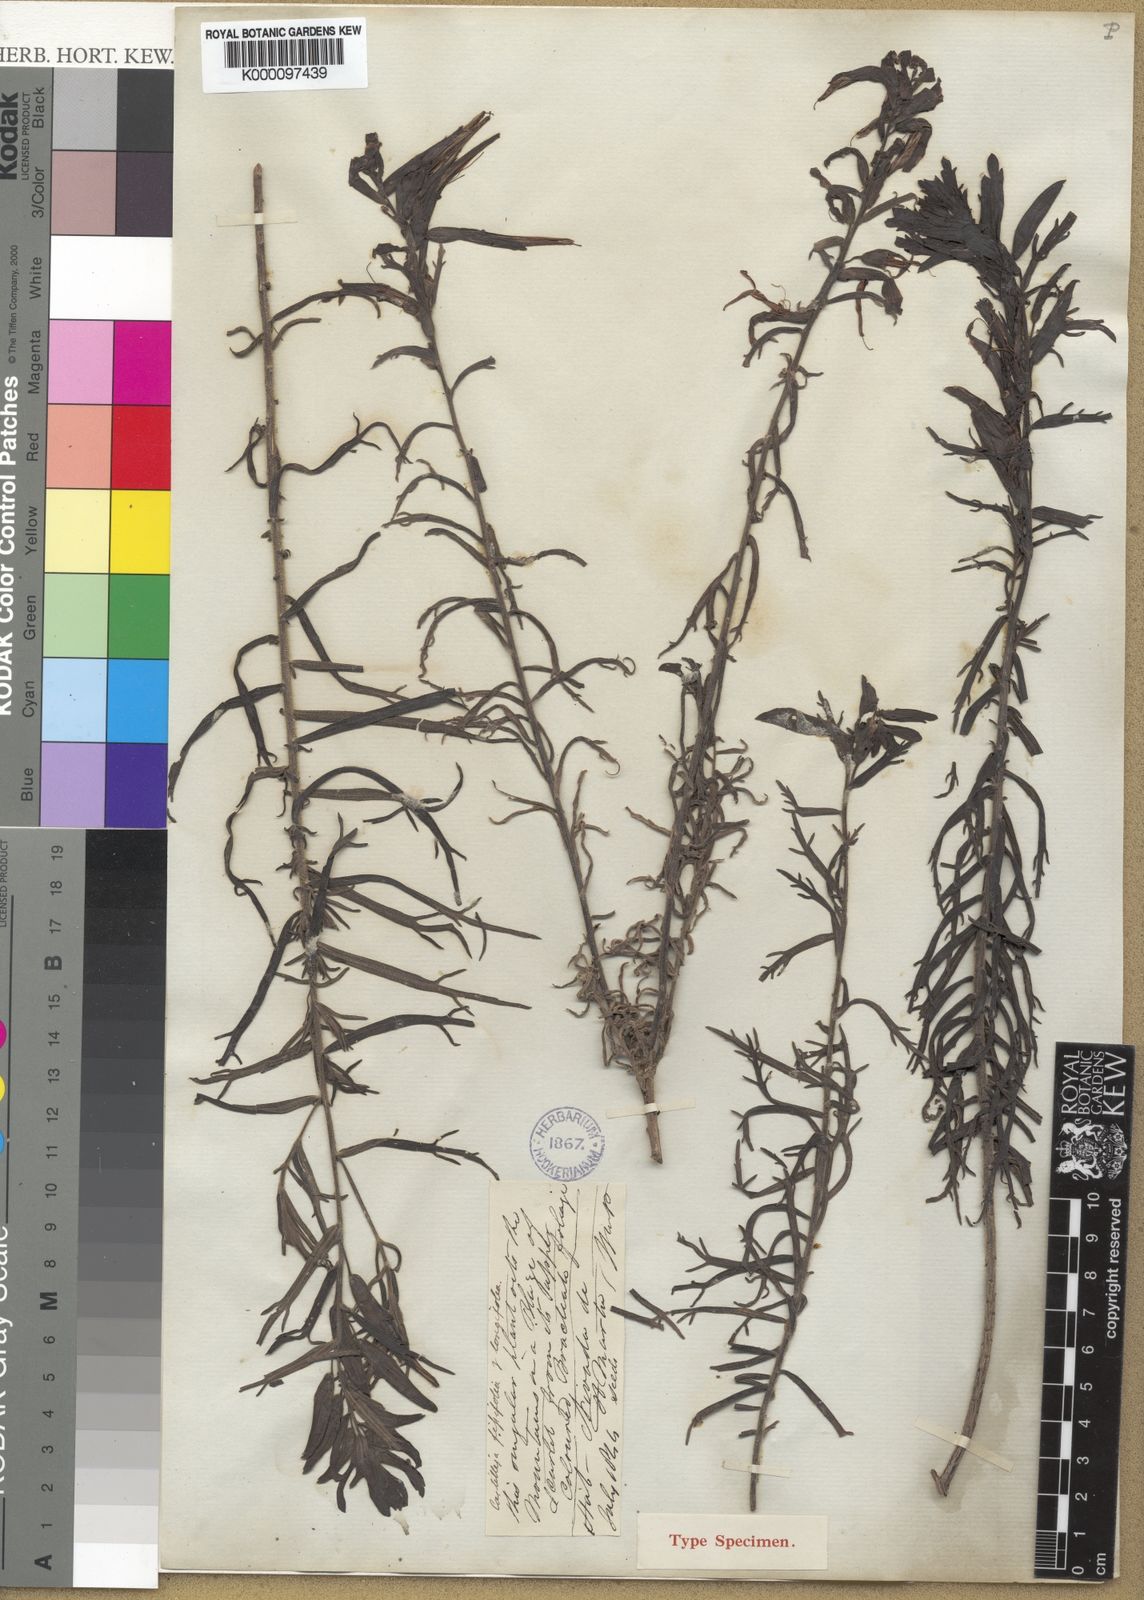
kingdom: Plantae
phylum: Tracheophyta
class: Magnoliopsida
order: Lamiales
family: Orobanchaceae
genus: Castilleja
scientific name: Castilleja fissifolia
